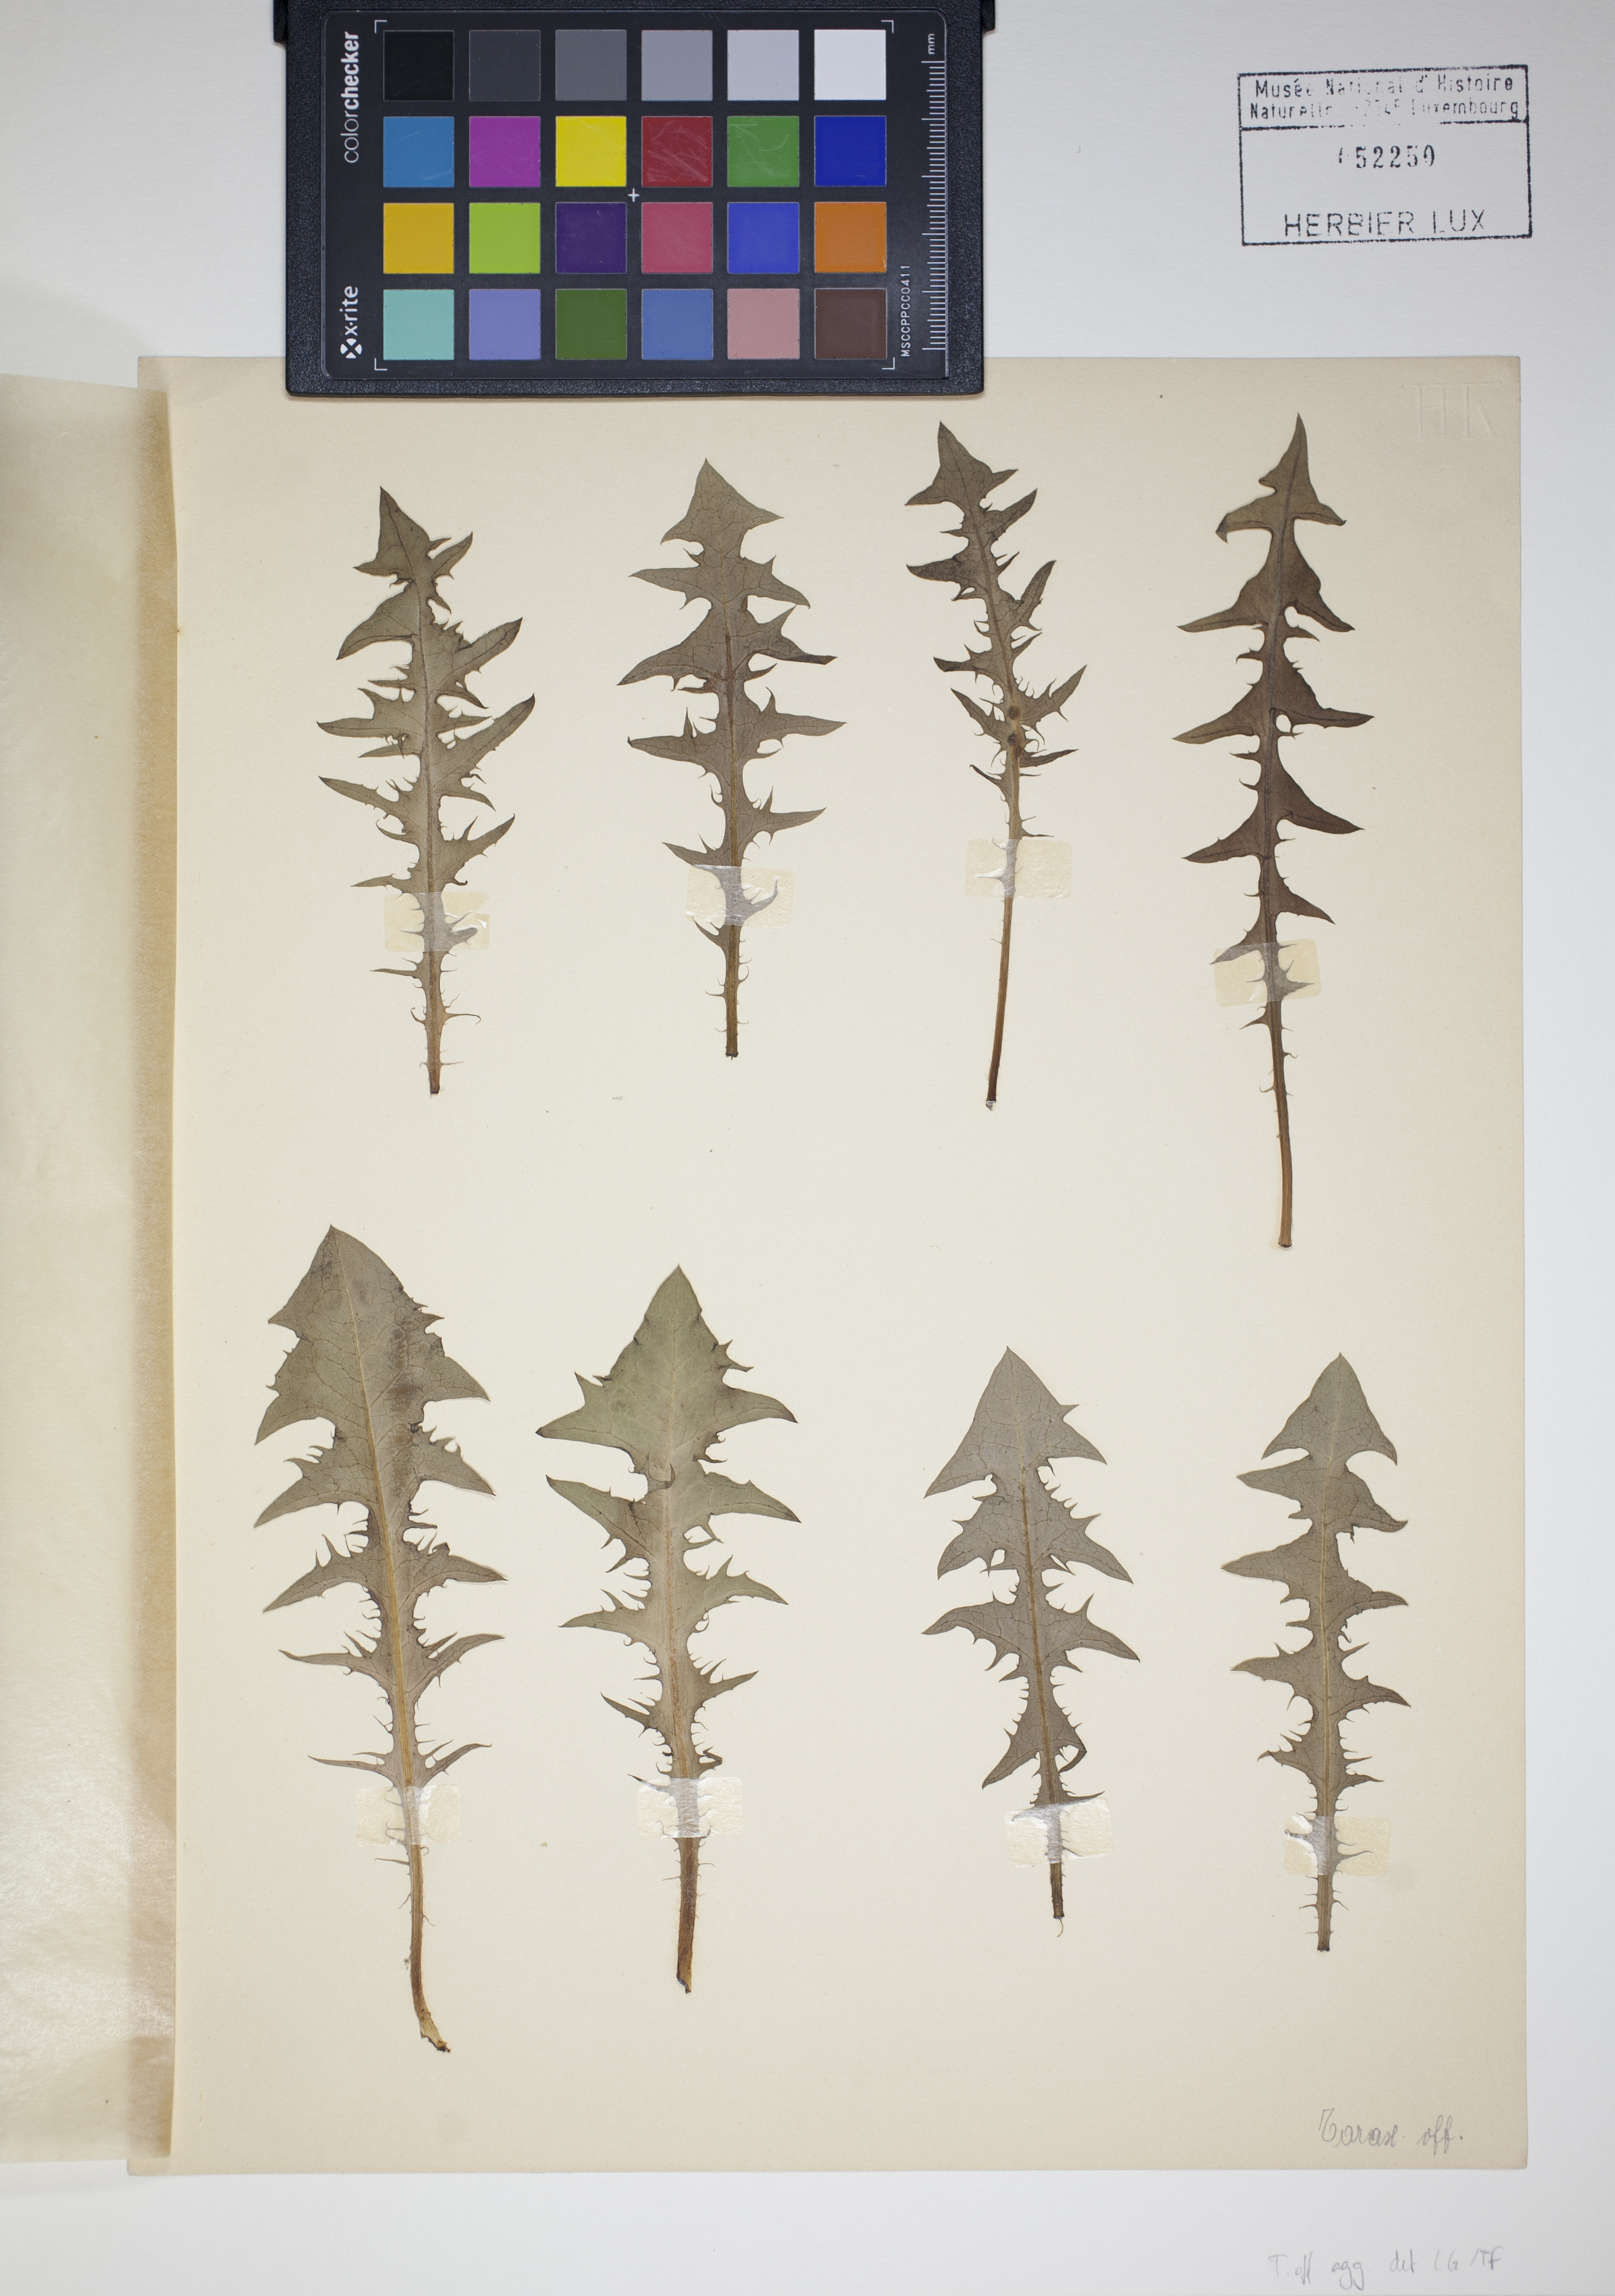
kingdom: Plantae
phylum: Tracheophyta
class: Magnoliopsida
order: Asterales
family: Asteraceae
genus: Taraxacum
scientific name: Taraxacum
